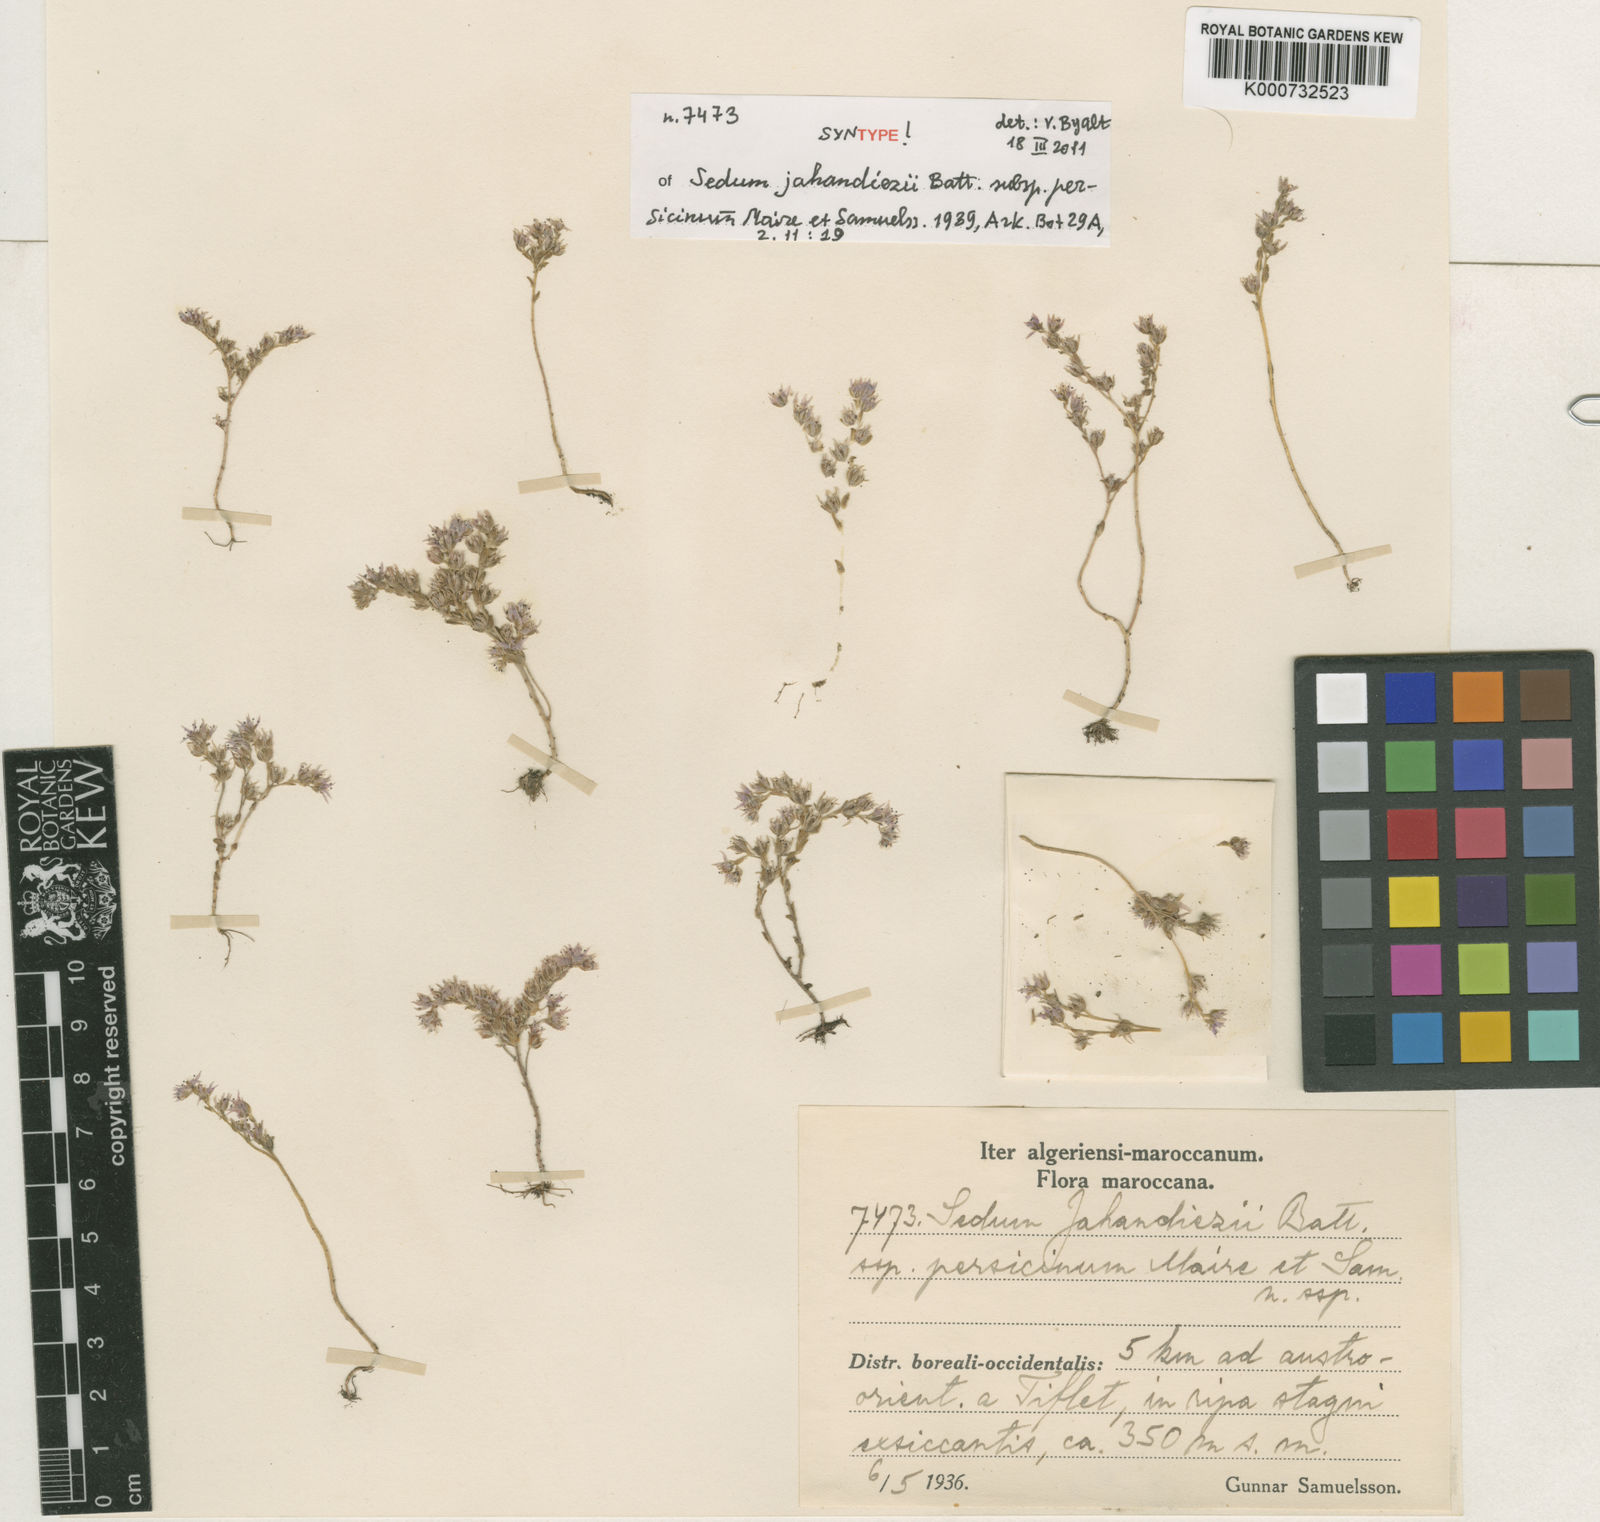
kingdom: Plantae
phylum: Tracheophyta
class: Magnoliopsida
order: Saxifragales
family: Crassulaceae
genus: Sedum
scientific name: Sedum jahandiezii
